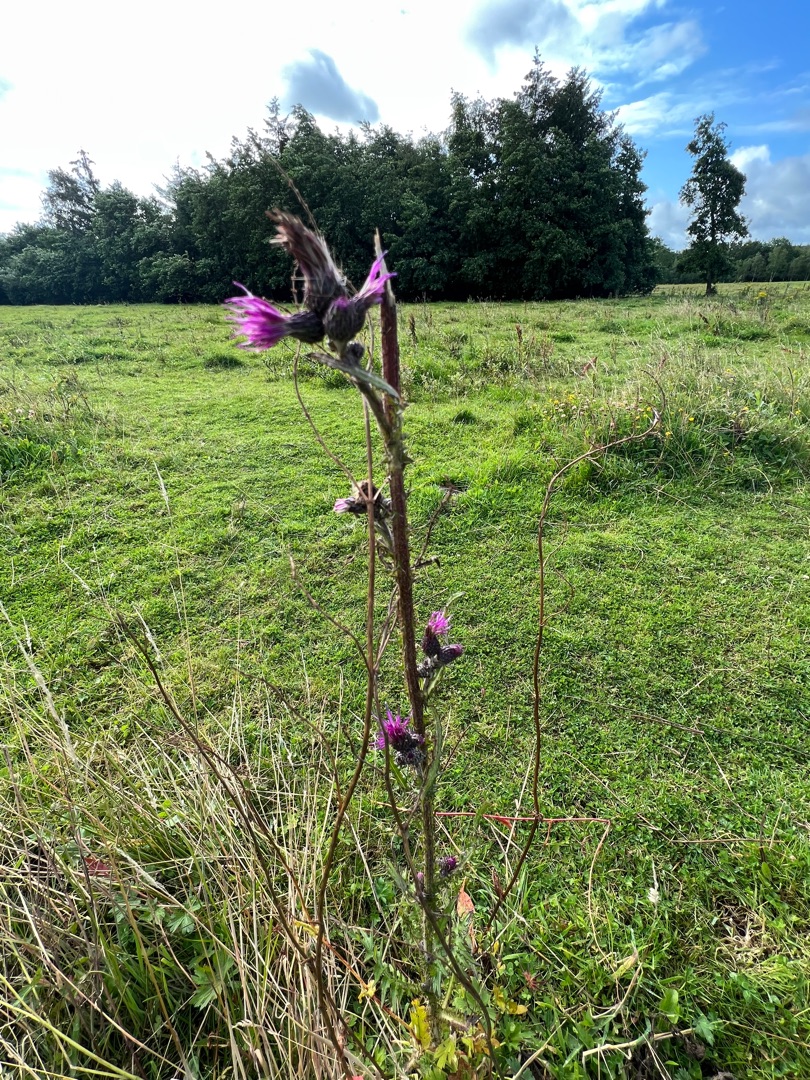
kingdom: Plantae
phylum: Tracheophyta
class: Magnoliopsida
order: Asterales
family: Asteraceae
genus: Cirsium
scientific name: Cirsium palustre
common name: Kær-tidsel
